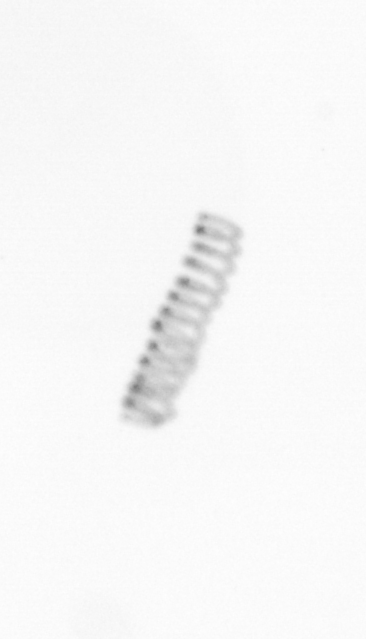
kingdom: Chromista
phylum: Ochrophyta
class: Bacillariophyceae
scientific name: Bacillariophyceae
